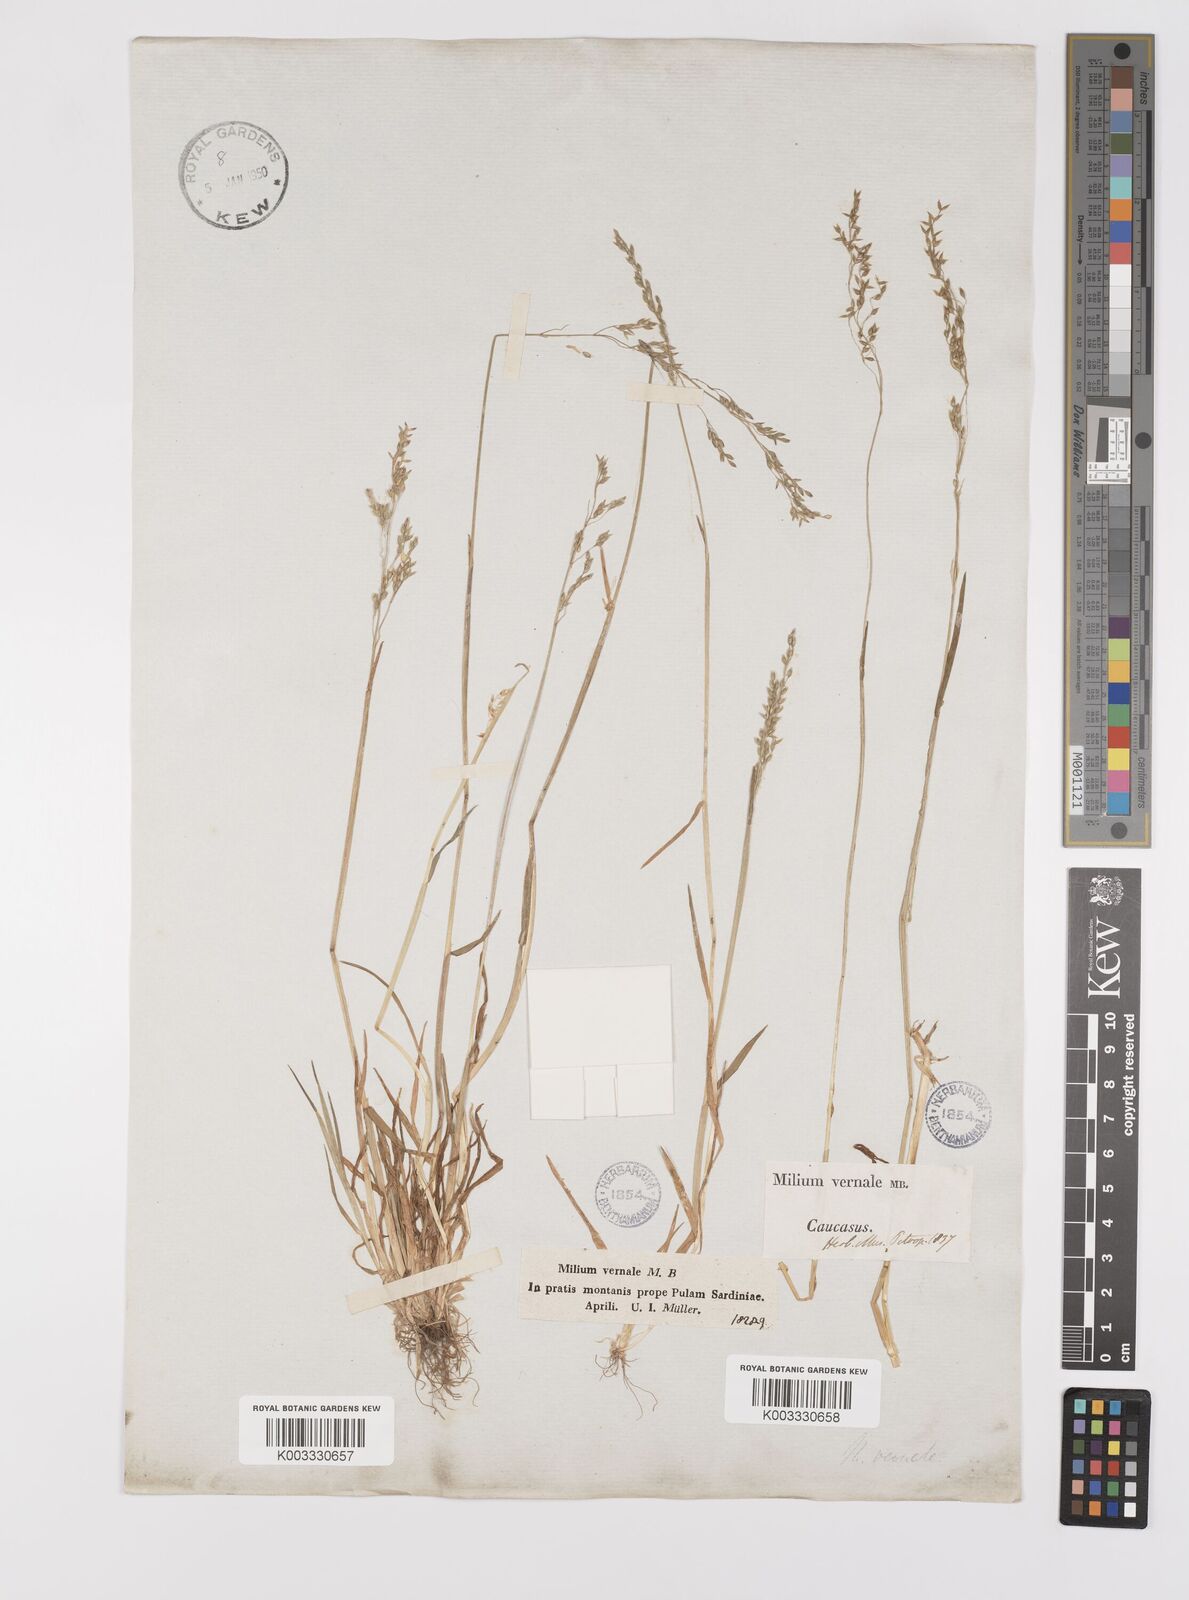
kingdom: Plantae
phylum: Tracheophyta
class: Liliopsida
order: Poales
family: Poaceae
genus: Milium
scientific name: Milium vernale
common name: Early millet
